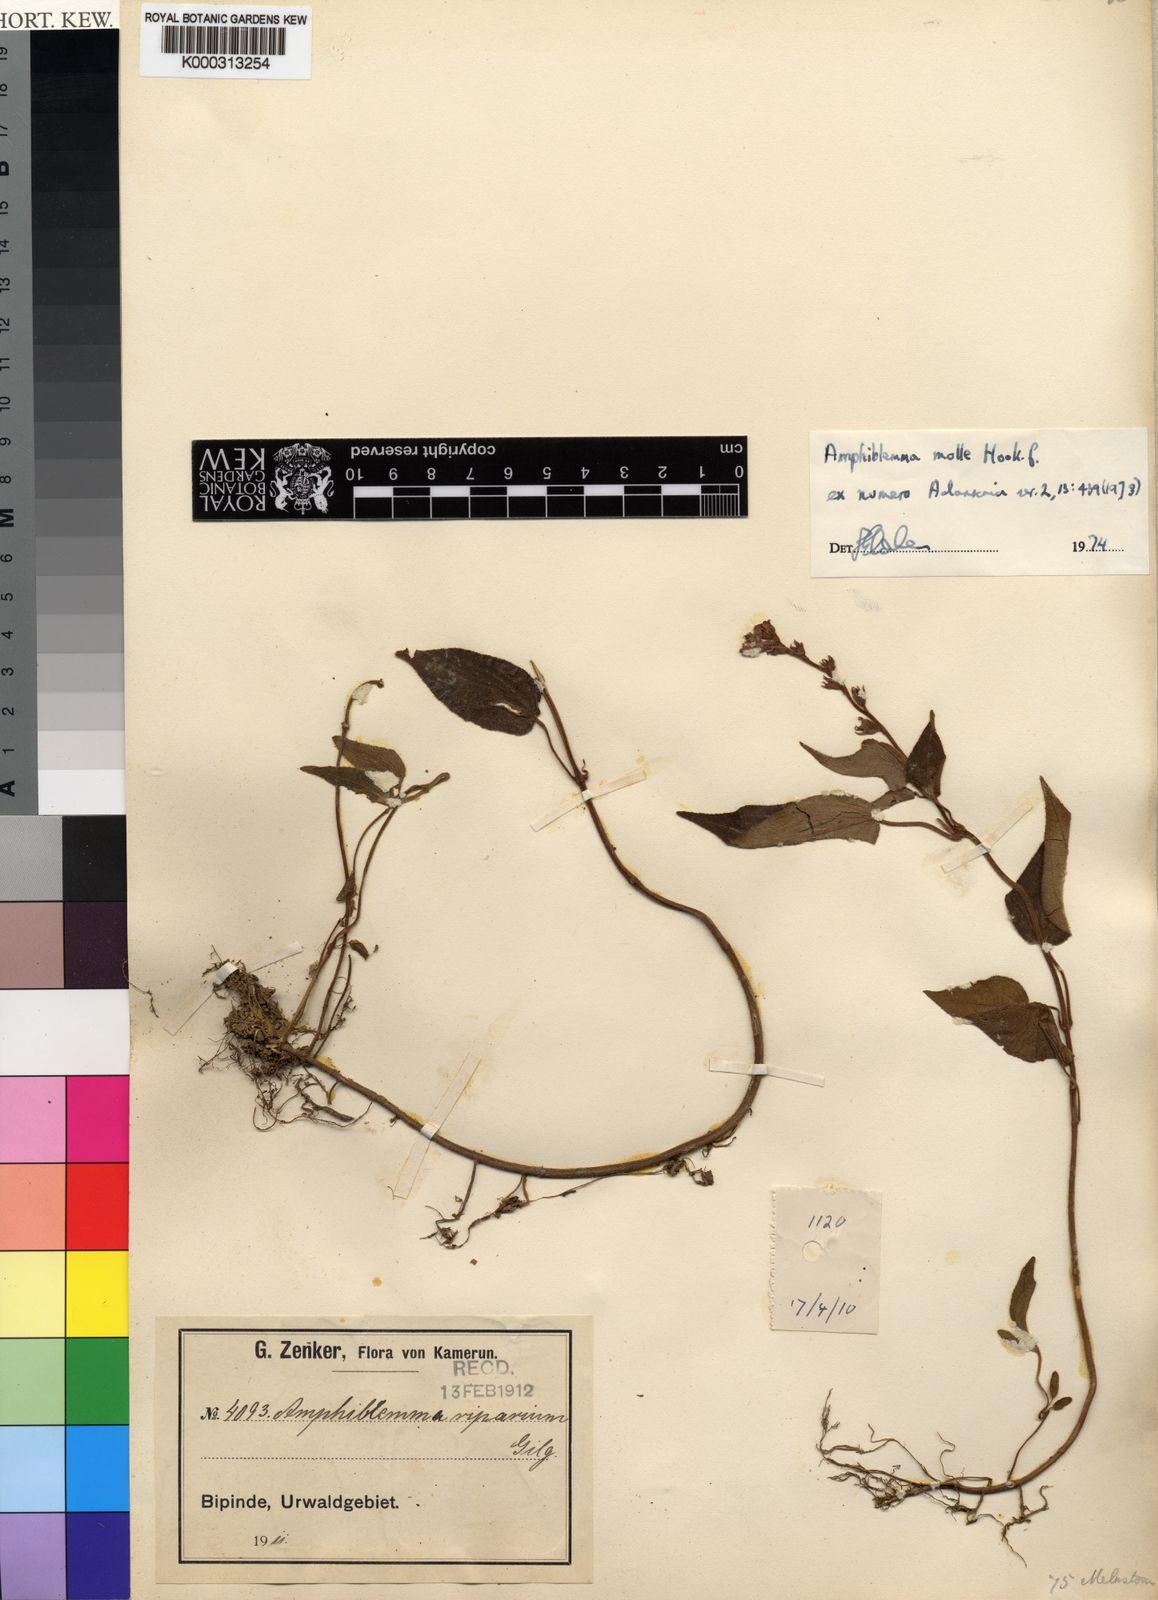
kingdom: Plantae
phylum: Tracheophyta
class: Magnoliopsida
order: Myrtales
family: Melastomataceae
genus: Amphiblemma
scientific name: Amphiblemma molle
